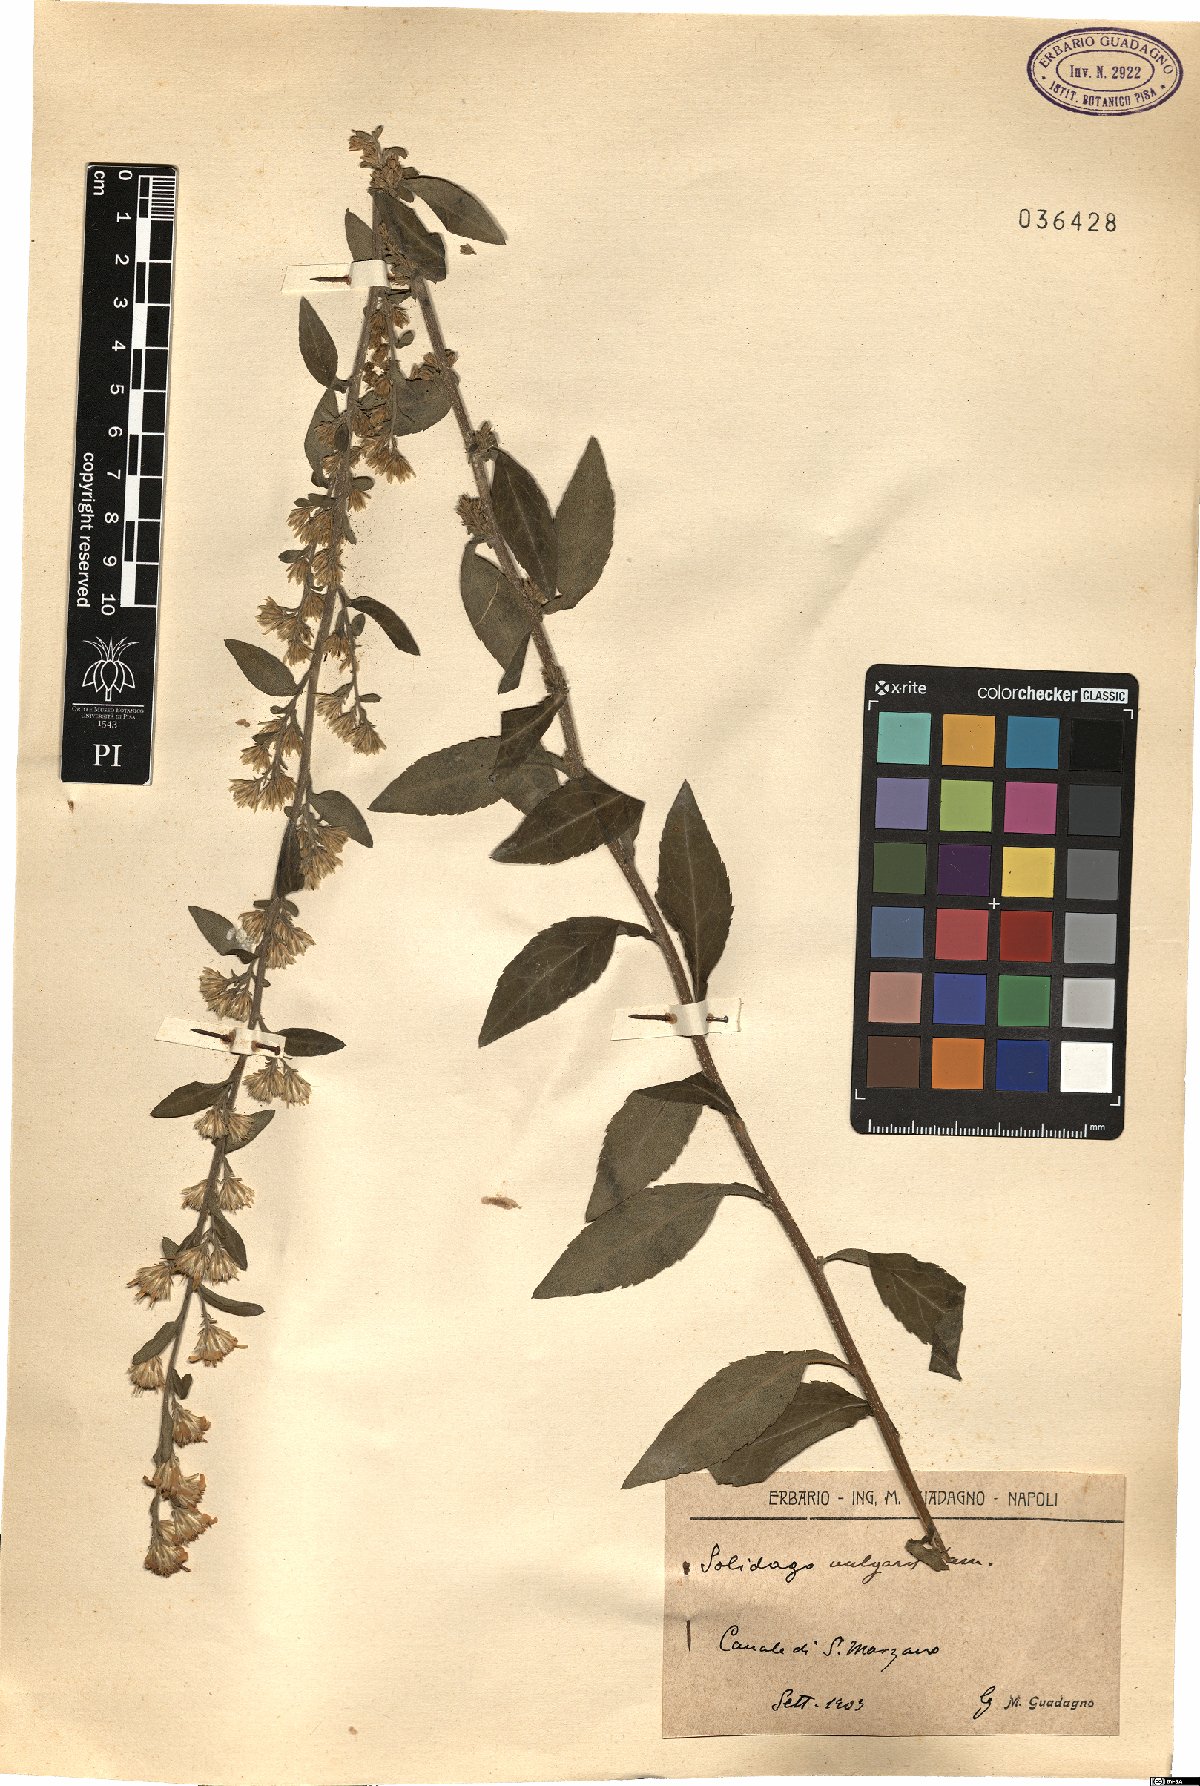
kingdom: Plantae
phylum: Tracheophyta
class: Magnoliopsida
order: Asterales
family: Asteraceae
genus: Solidago
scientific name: Solidago virgaurea
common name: Goldenrod
